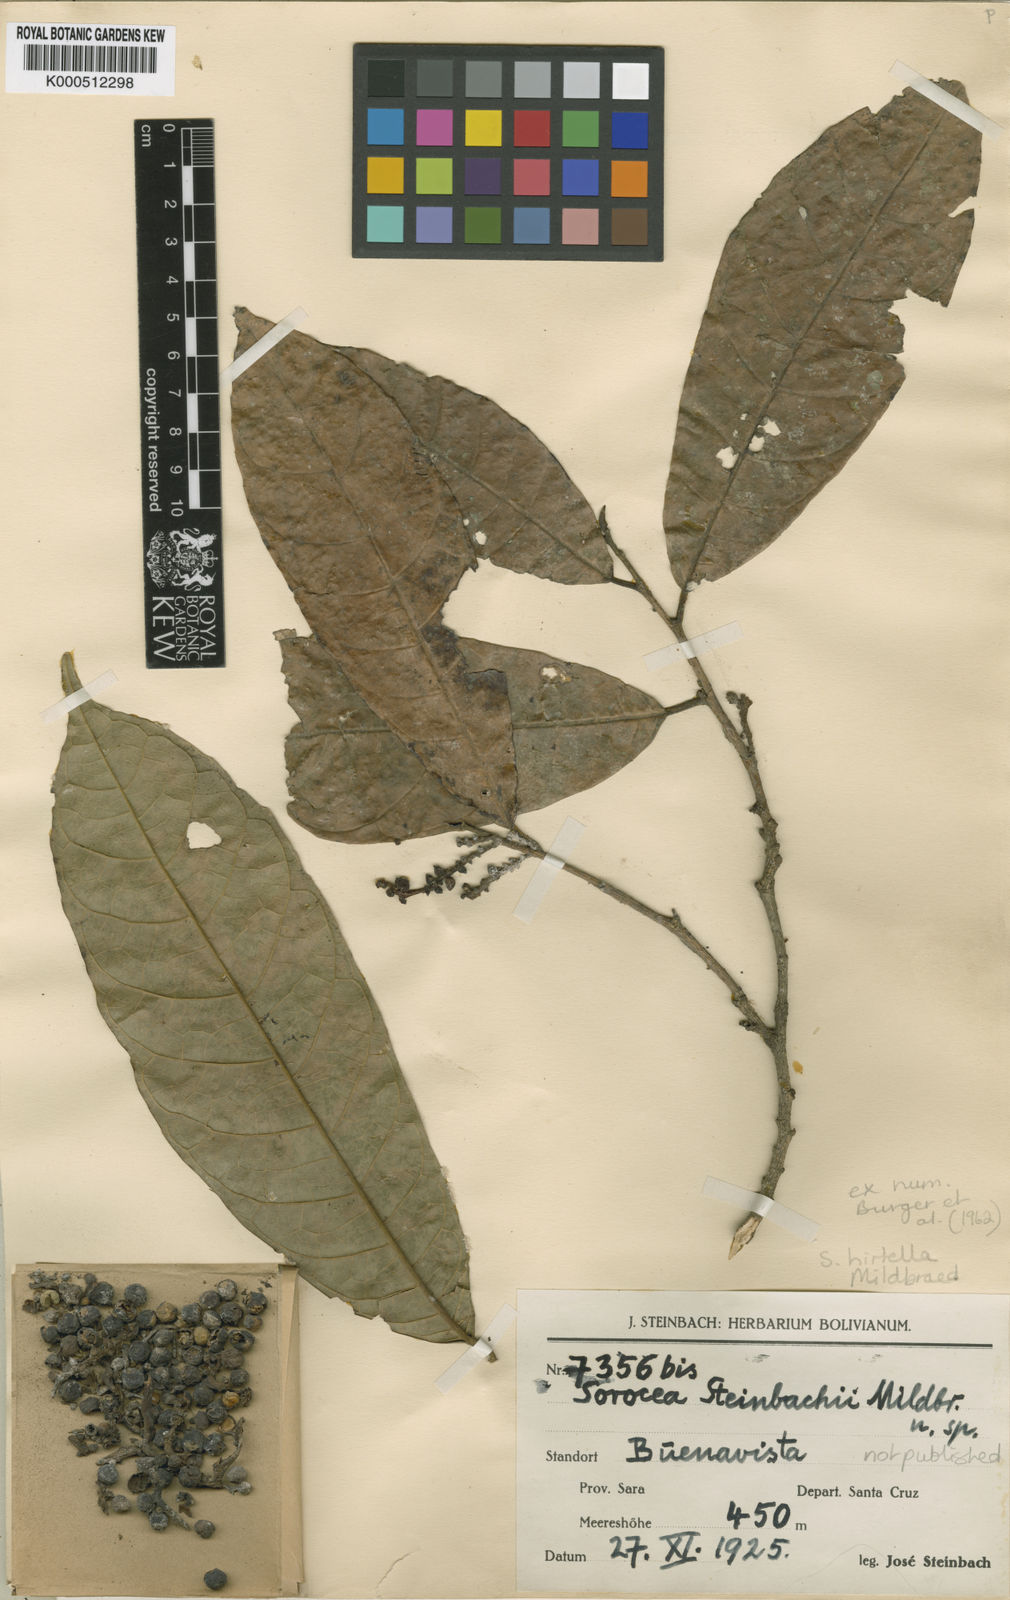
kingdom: Plantae
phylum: Tracheophyta
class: Magnoliopsida
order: Rosales
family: Moraceae
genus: Sorocea
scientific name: Sorocea pubivena
